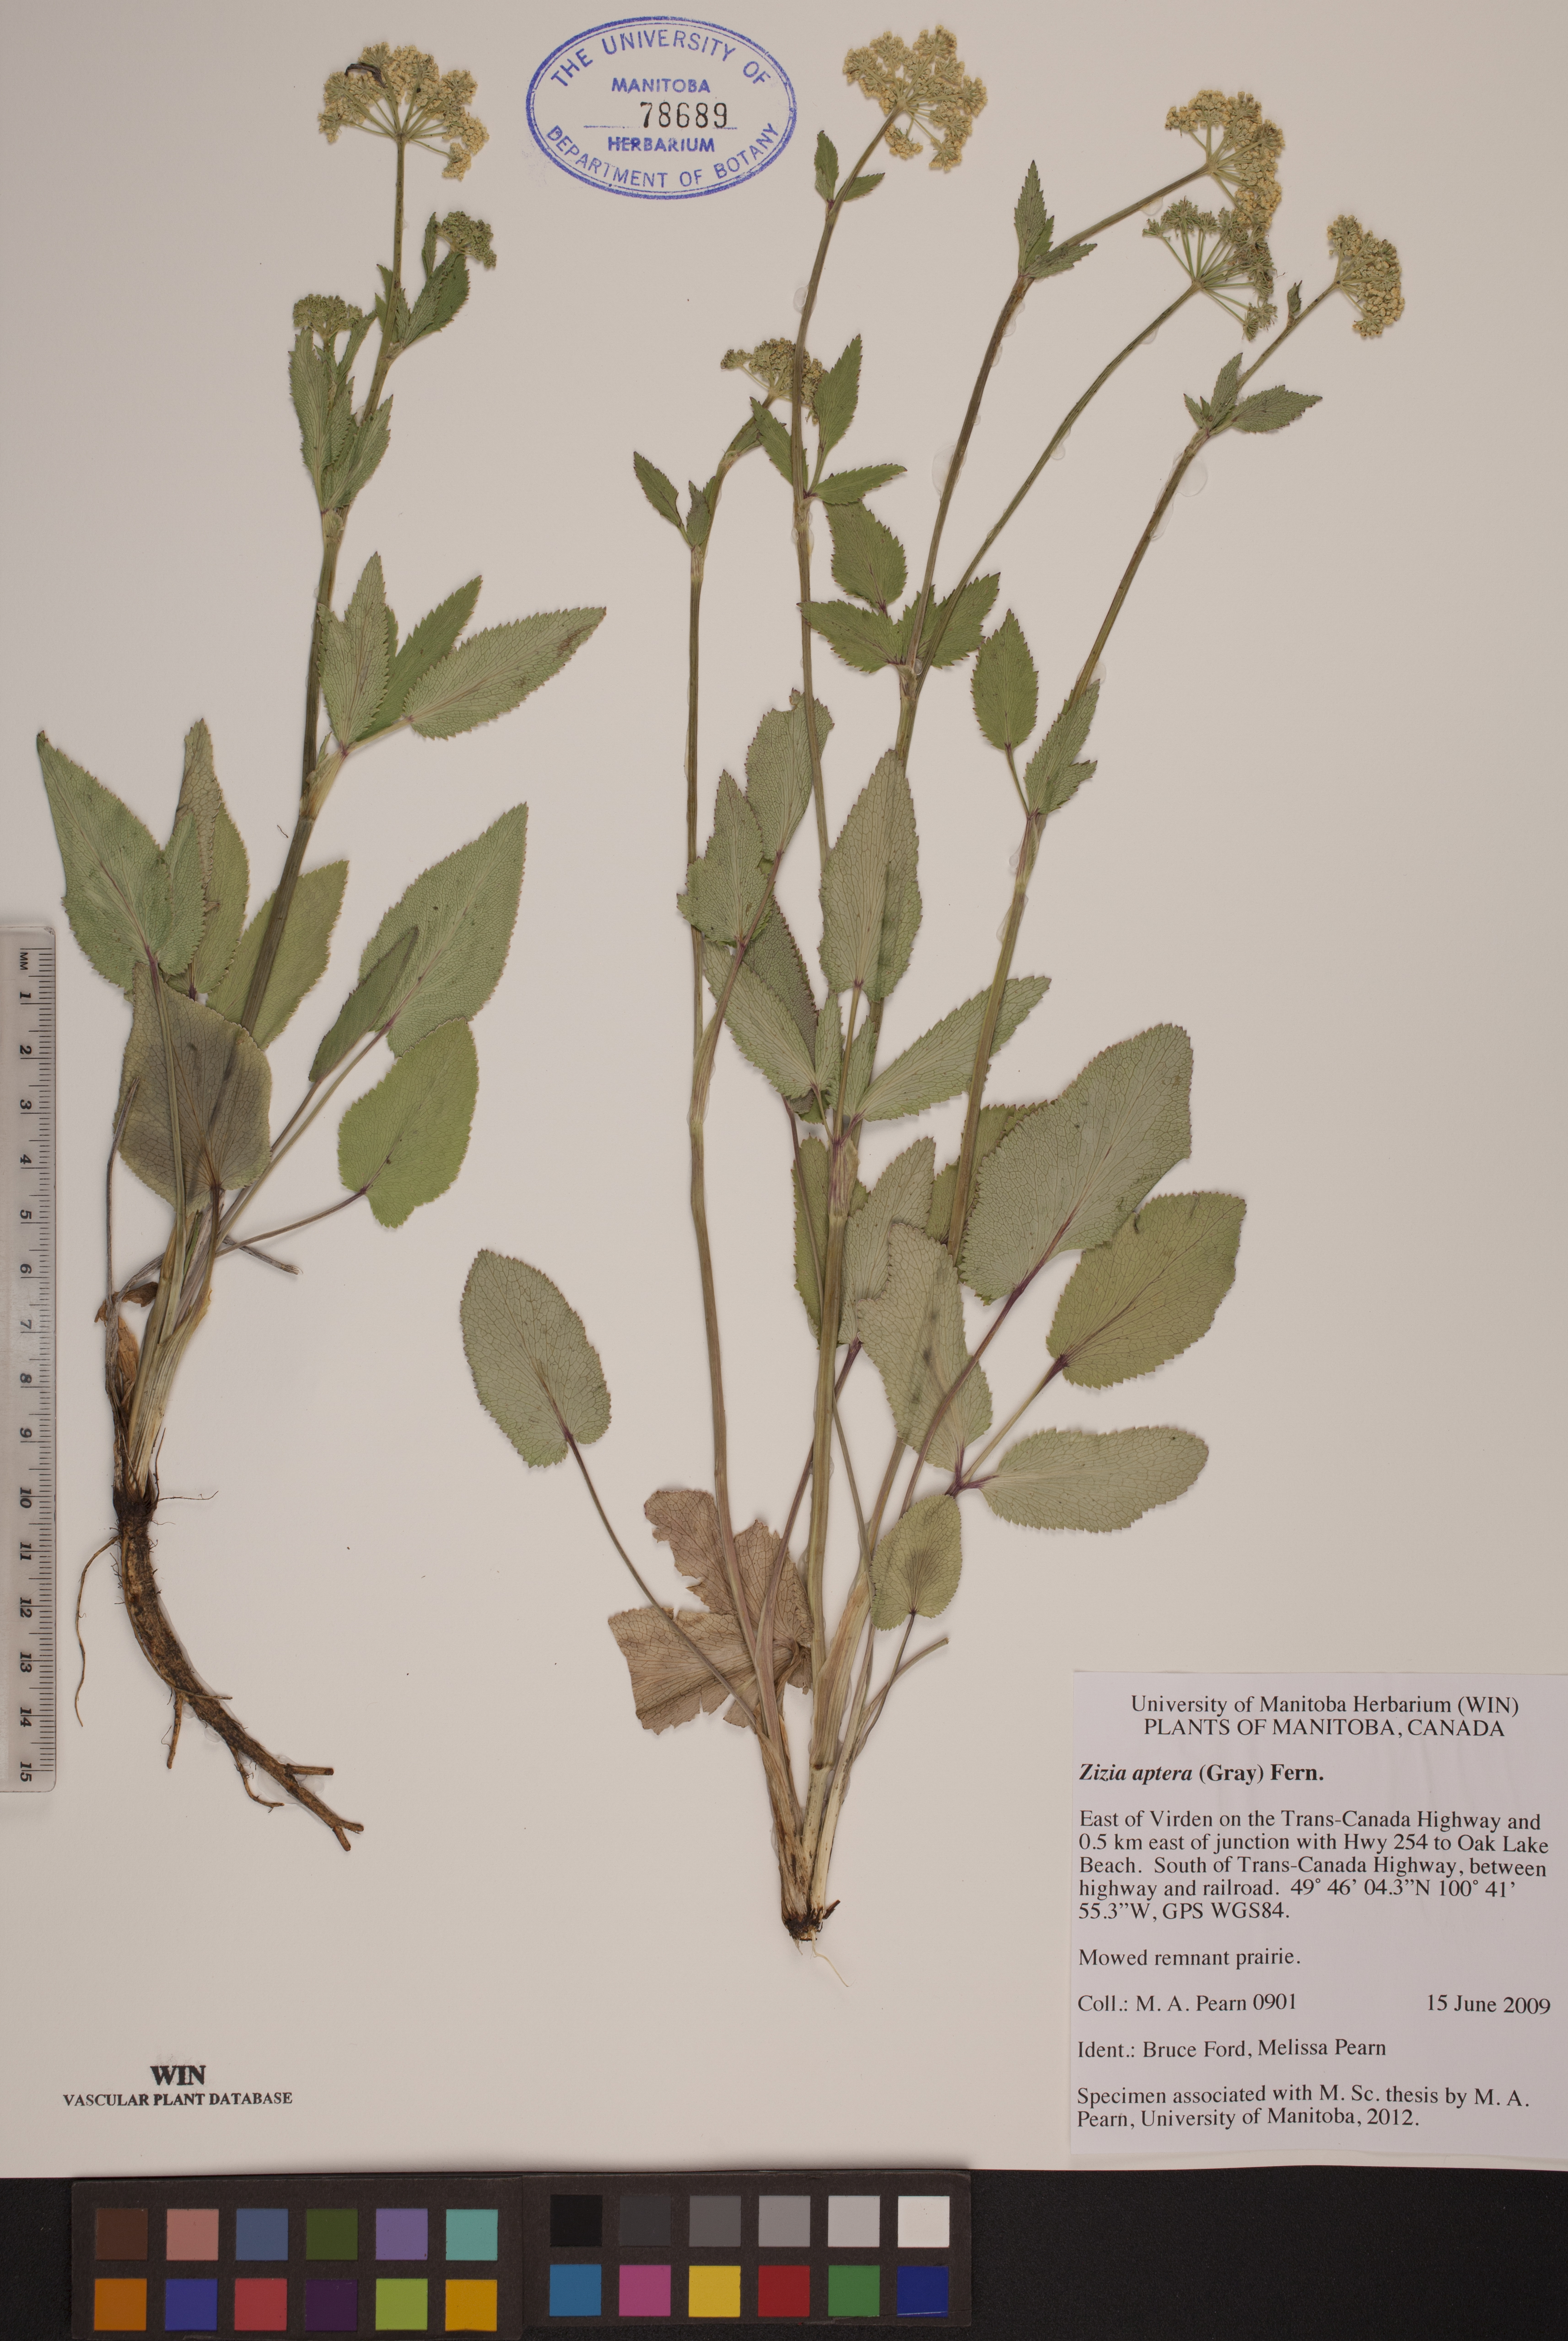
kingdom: Plantae
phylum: Tracheophyta
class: Magnoliopsida
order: Apiales
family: Apiaceae
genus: Zizia
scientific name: Zizia aptera
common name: Heart-leaved alexanders
